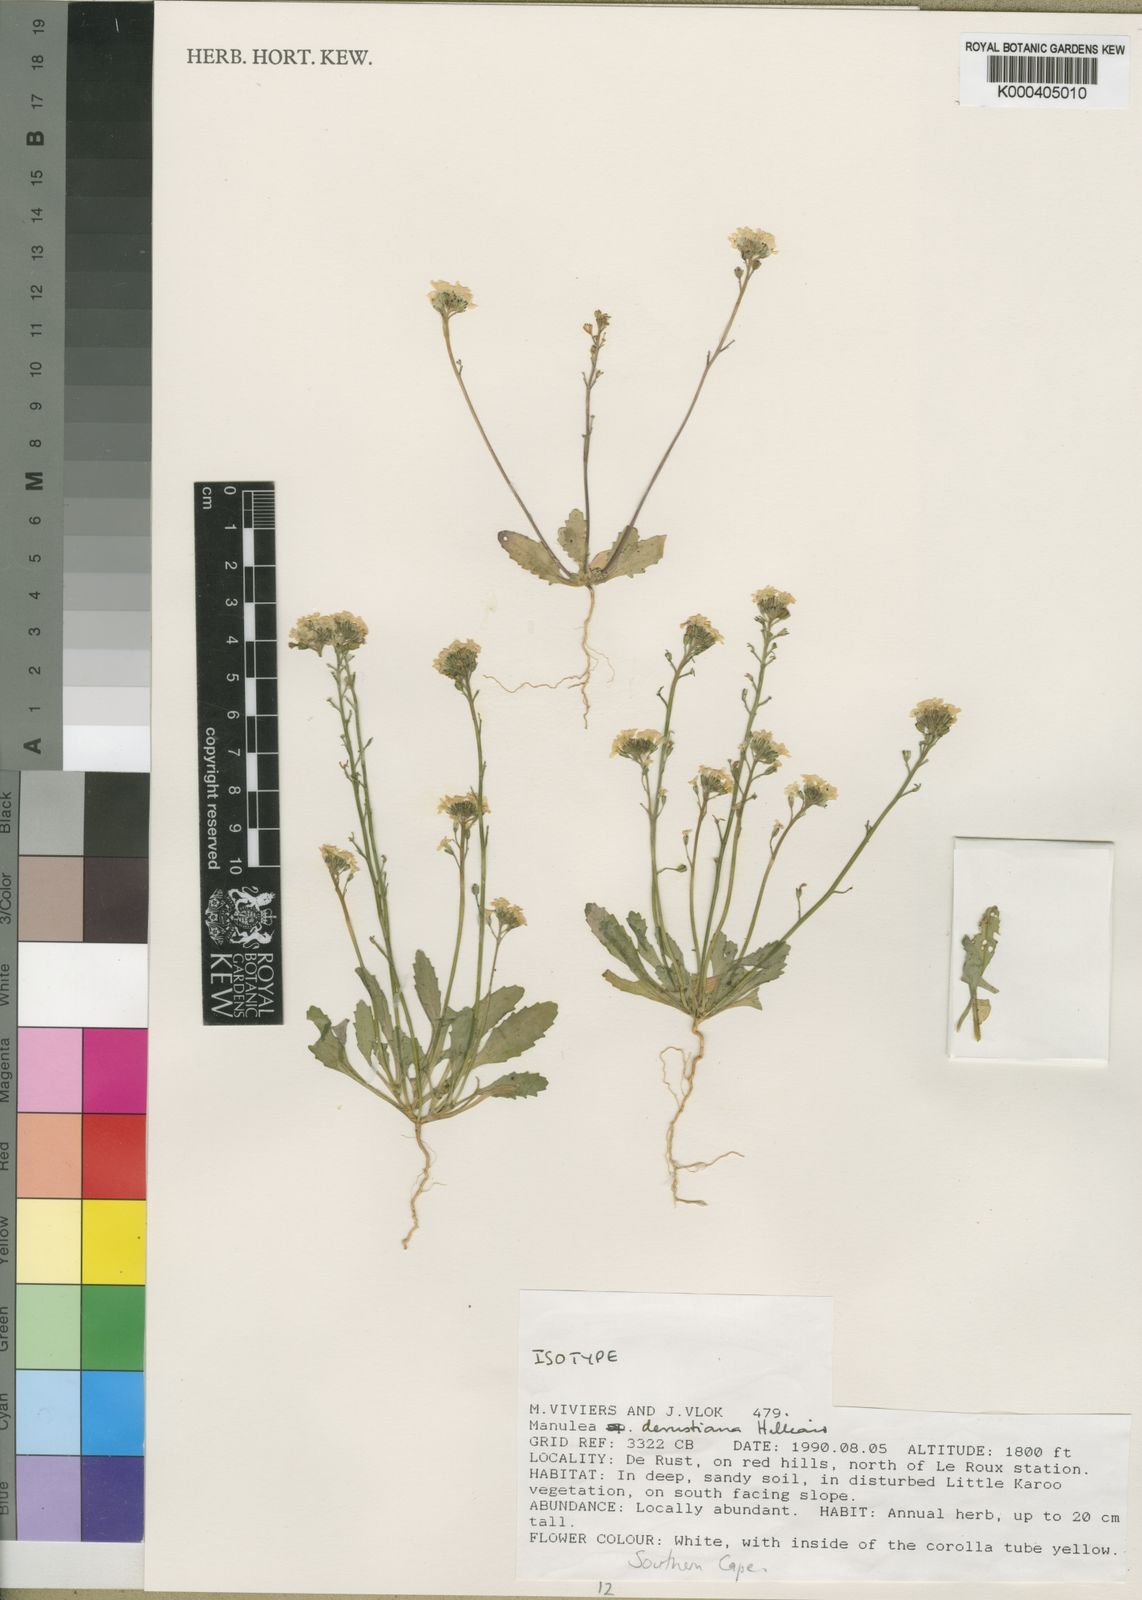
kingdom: Plantae
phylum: Tracheophyta
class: Magnoliopsida
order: Lamiales
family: Scrophulariaceae
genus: Manulea
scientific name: Manulea derustiana
